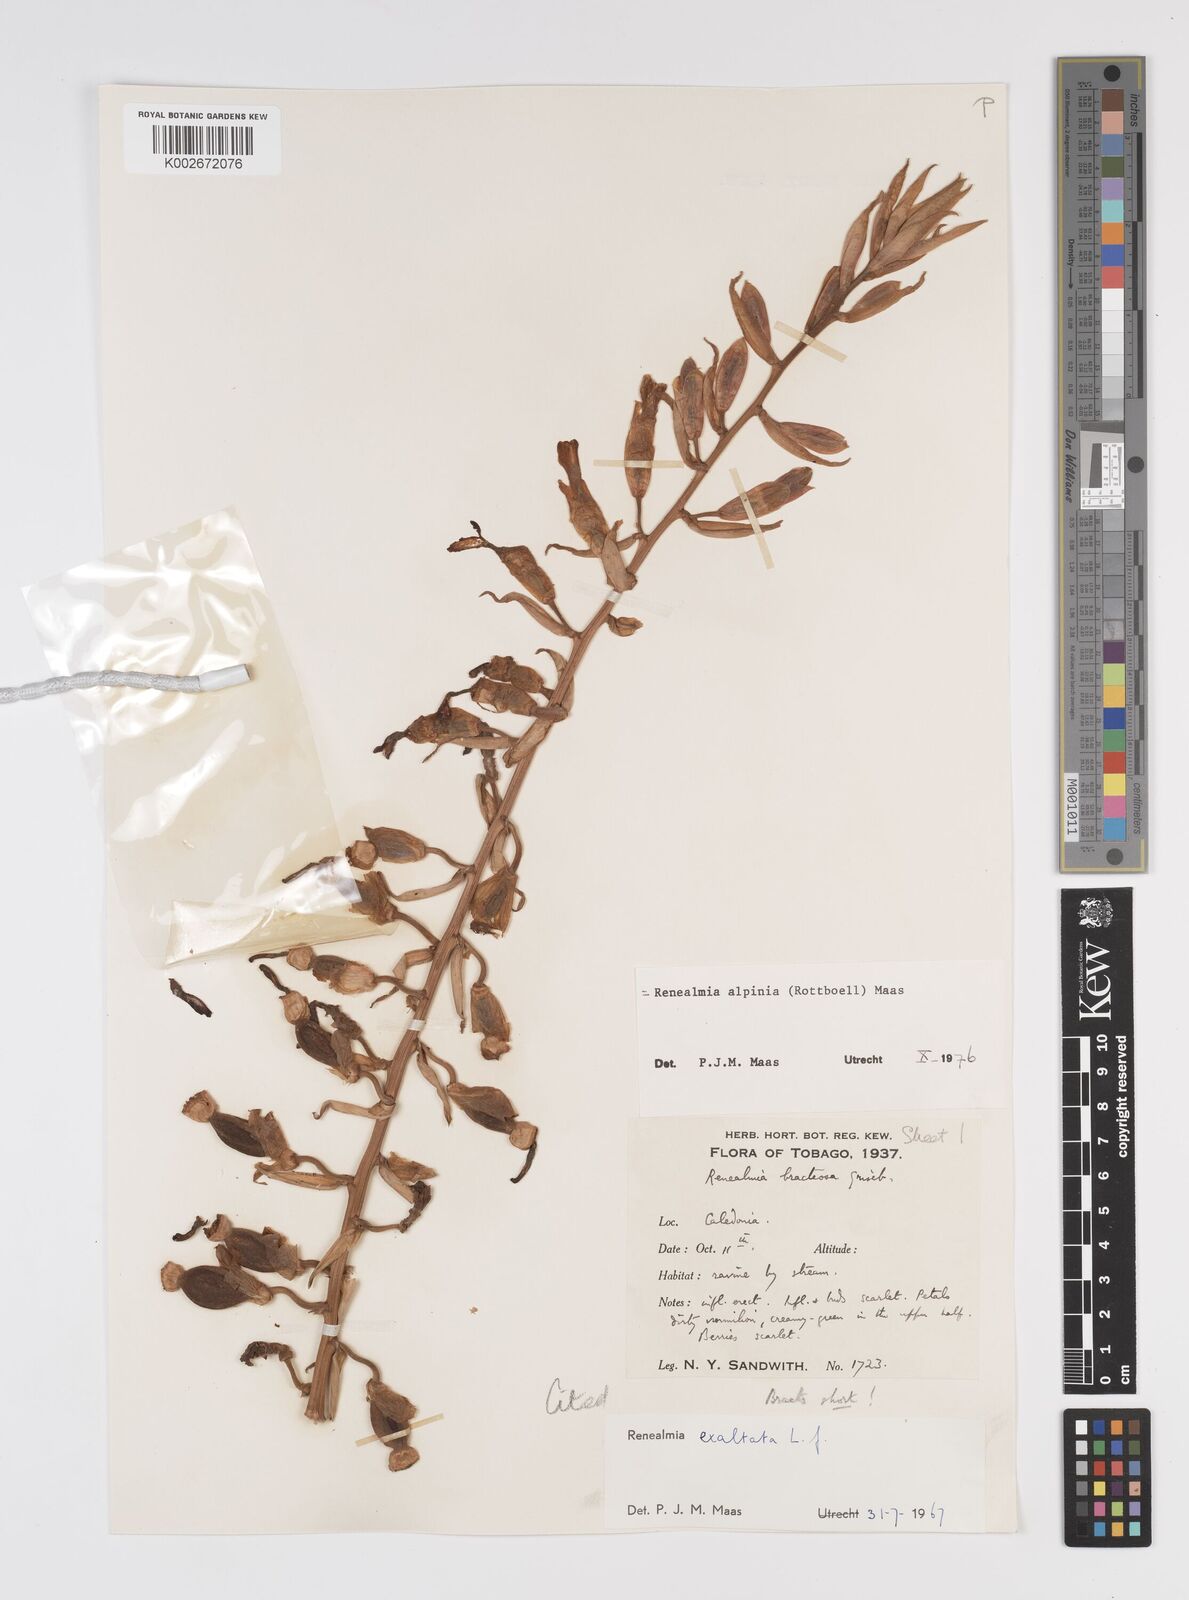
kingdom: Plantae
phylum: Tracheophyta
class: Liliopsida
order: Zingiberales
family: Zingiberaceae
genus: Renealmia
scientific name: Renealmia alpinia
